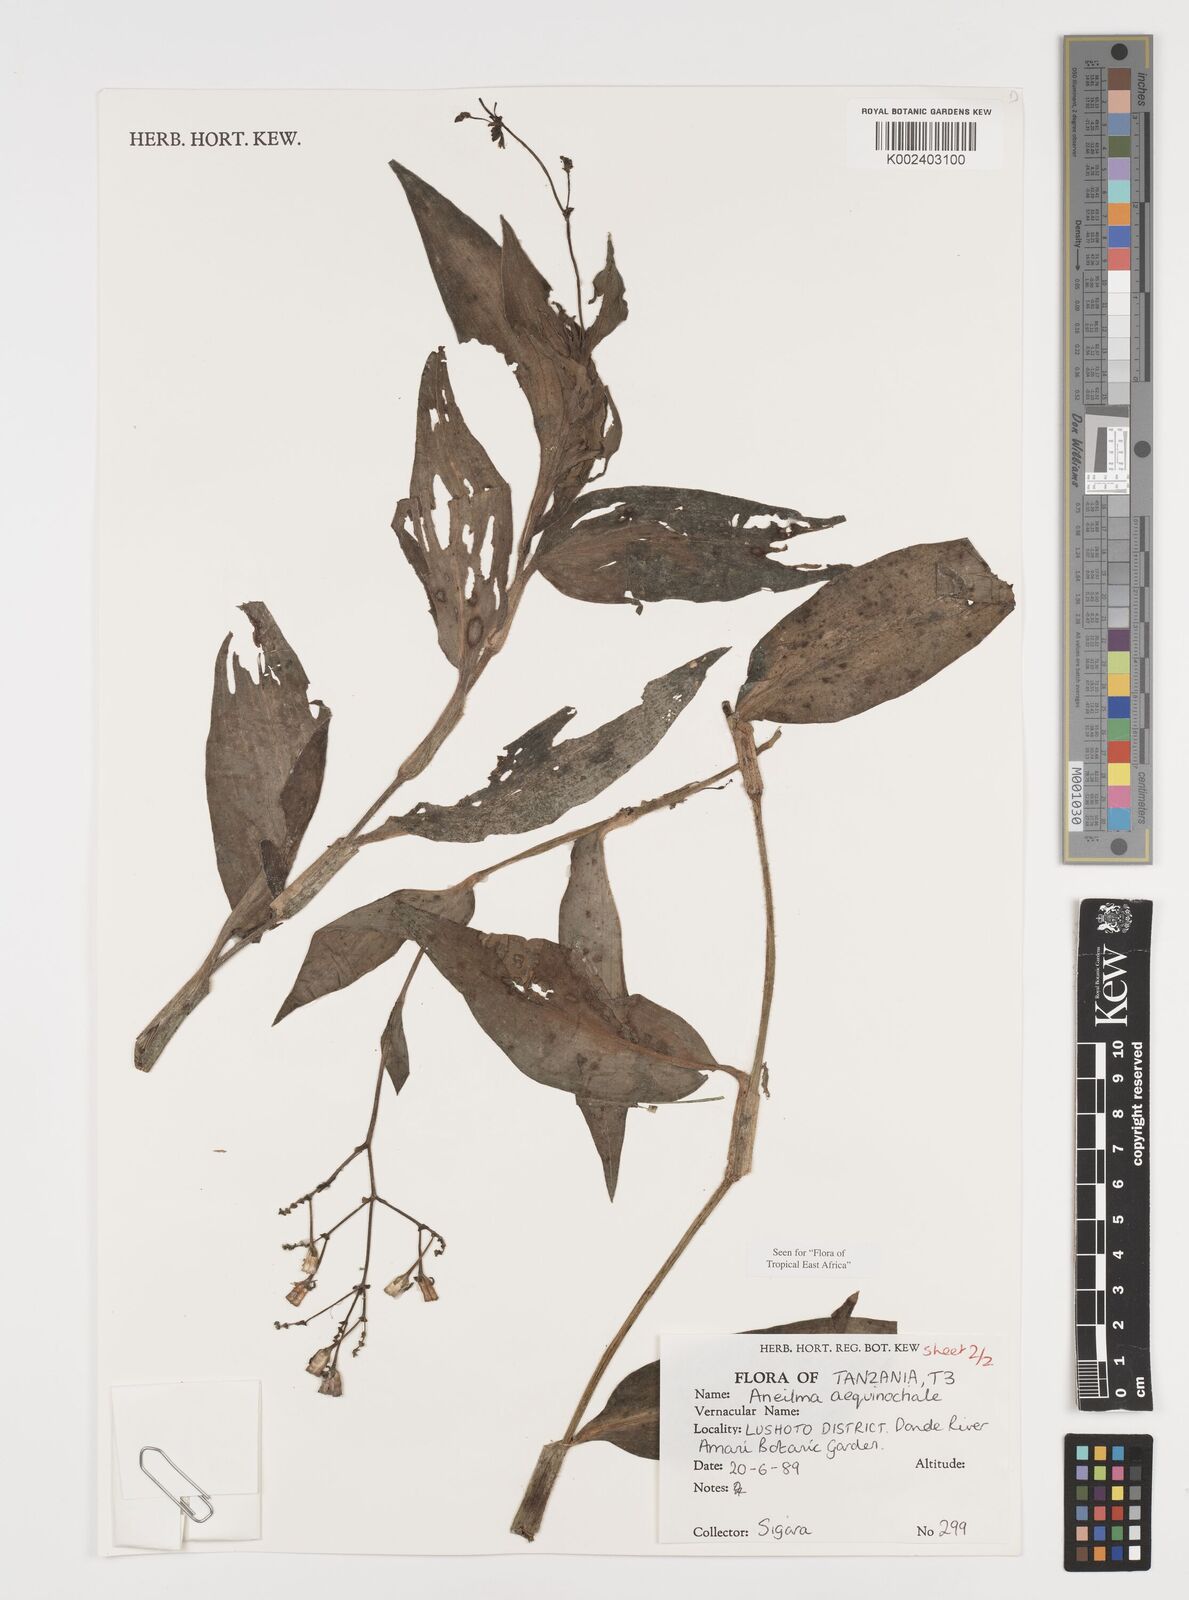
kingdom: Plantae
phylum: Tracheophyta
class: Liliopsida
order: Commelinales
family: Commelinaceae
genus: Aneilema
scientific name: Aneilema aequinoctiale
